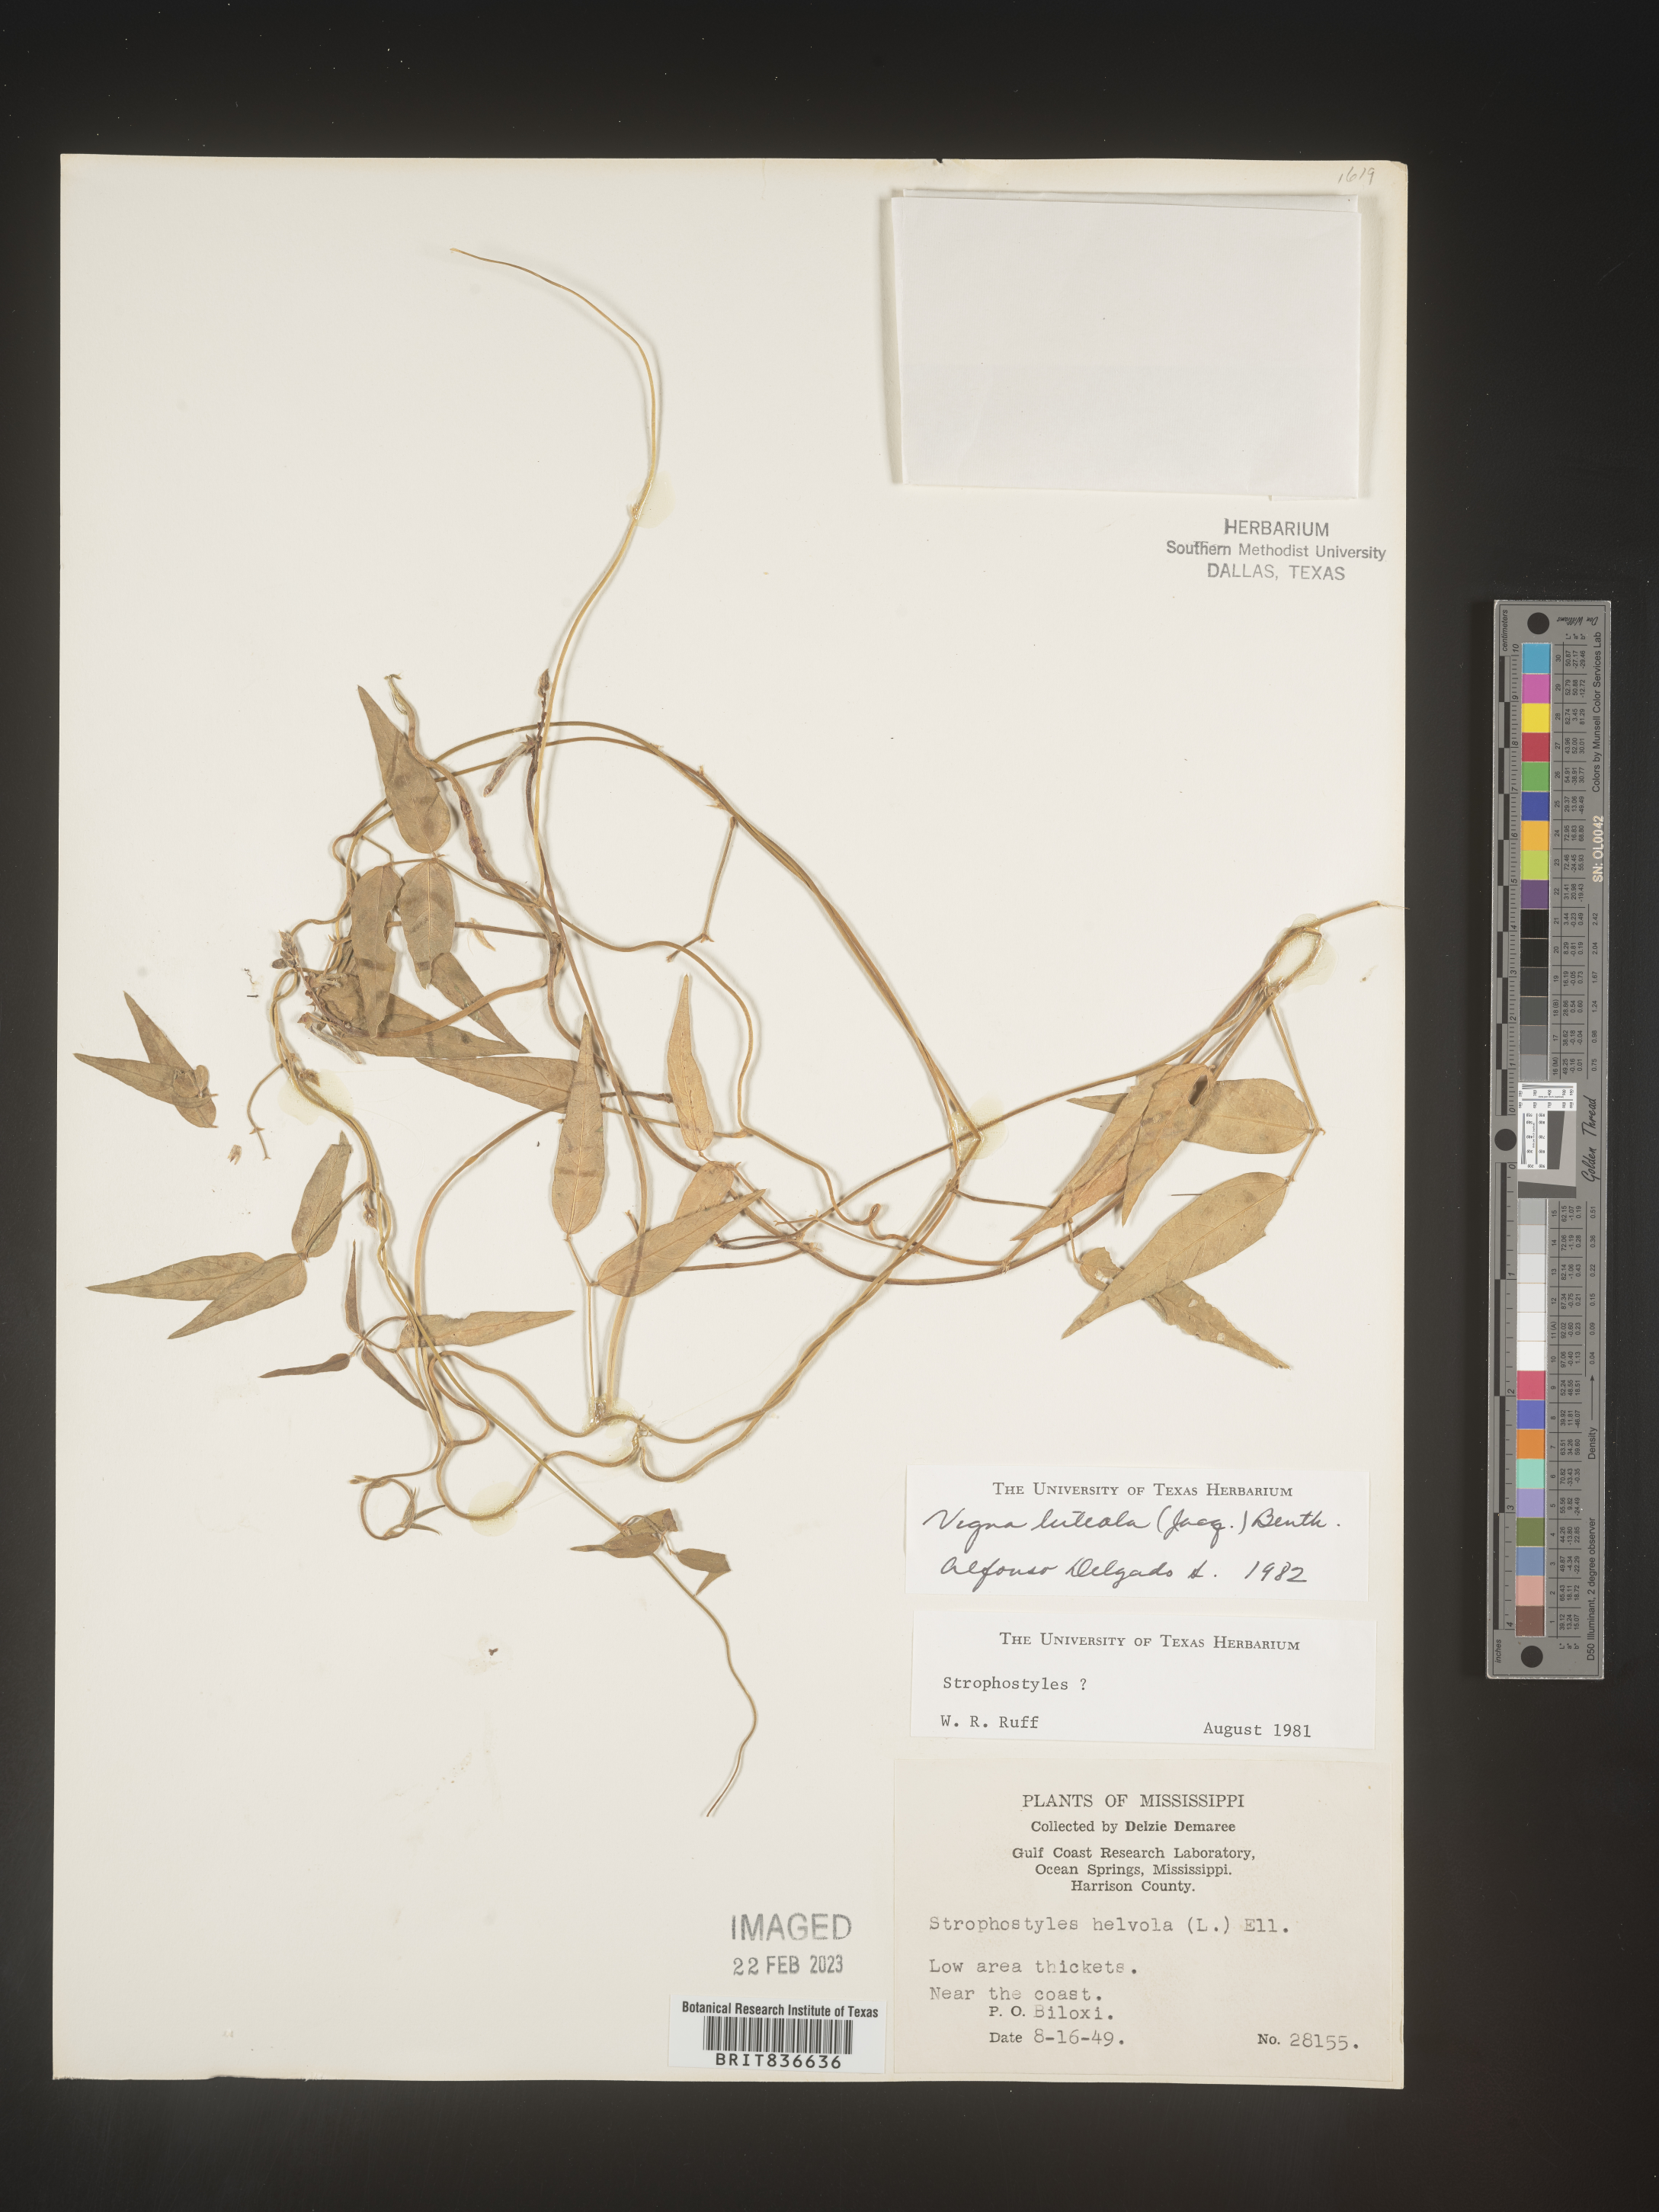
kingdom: Plantae
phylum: Tracheophyta
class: Magnoliopsida
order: Fabales
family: Fabaceae
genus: Vigna
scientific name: Vigna
